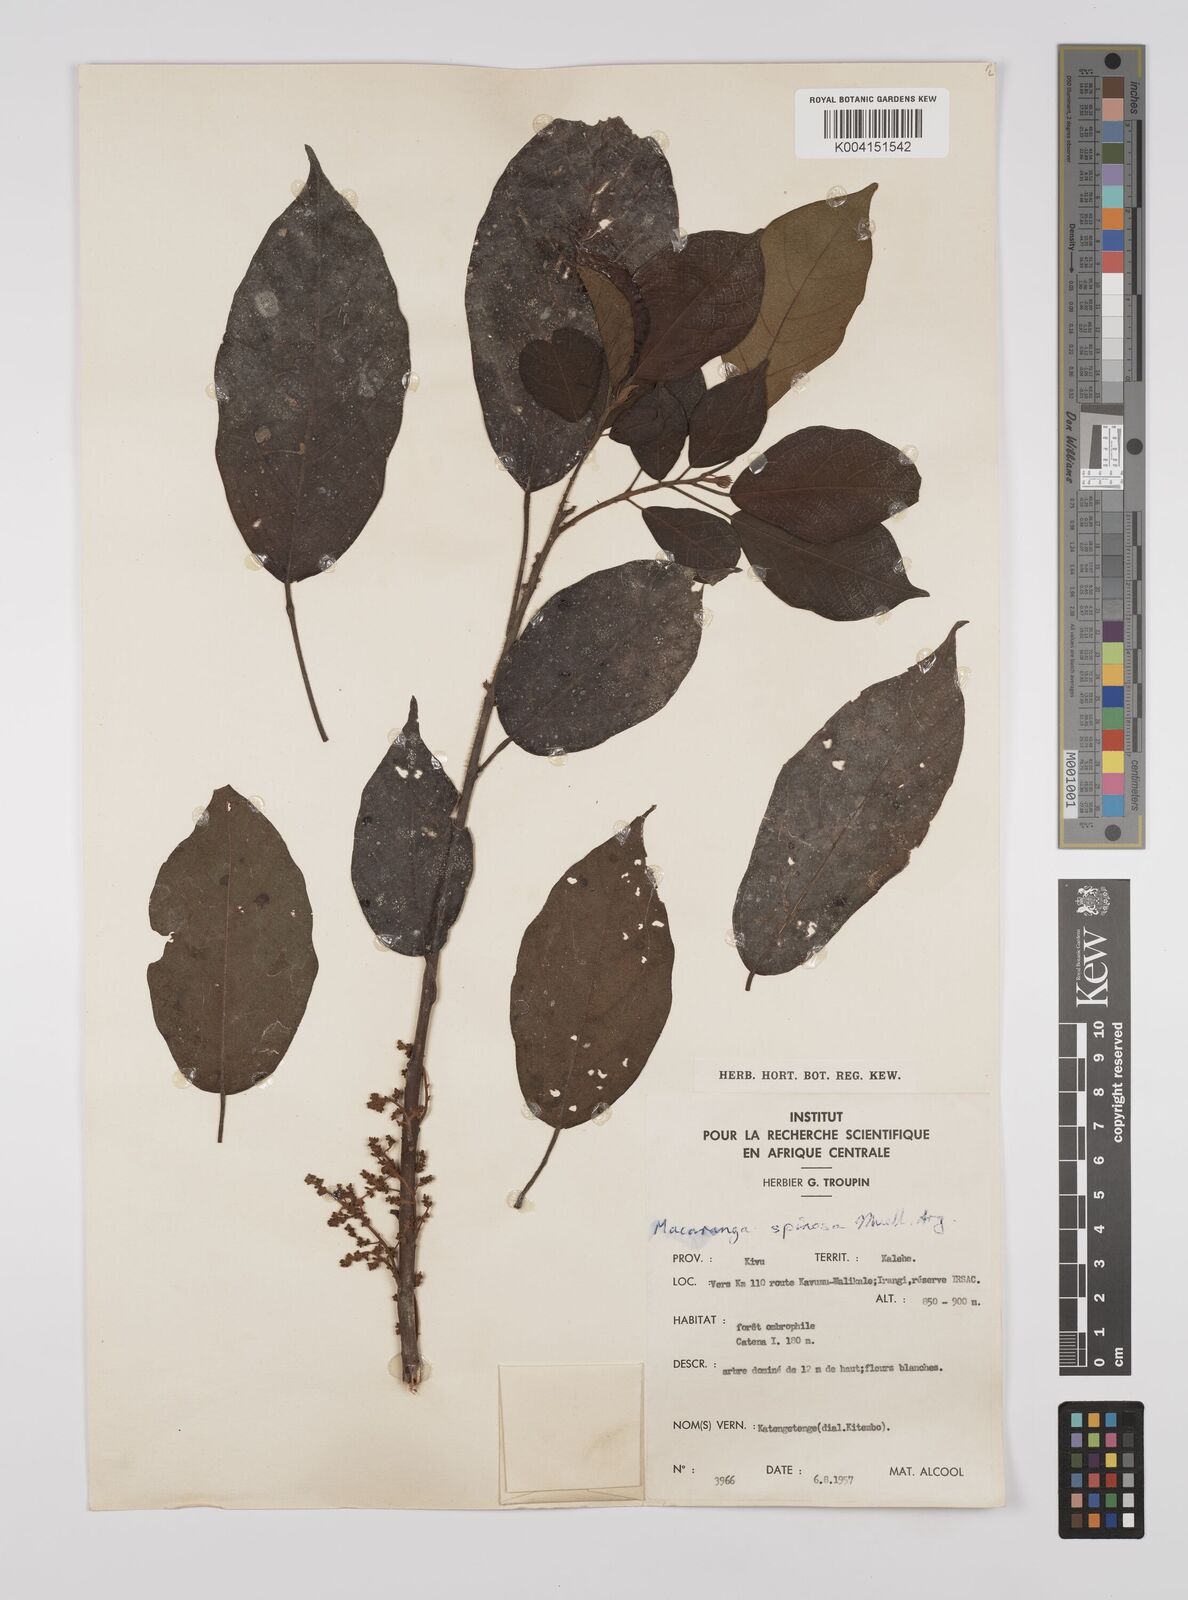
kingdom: Plantae
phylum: Tracheophyta
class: Magnoliopsida
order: Malpighiales
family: Euphorbiaceae
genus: Macaranga
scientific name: Macaranga spinosa
